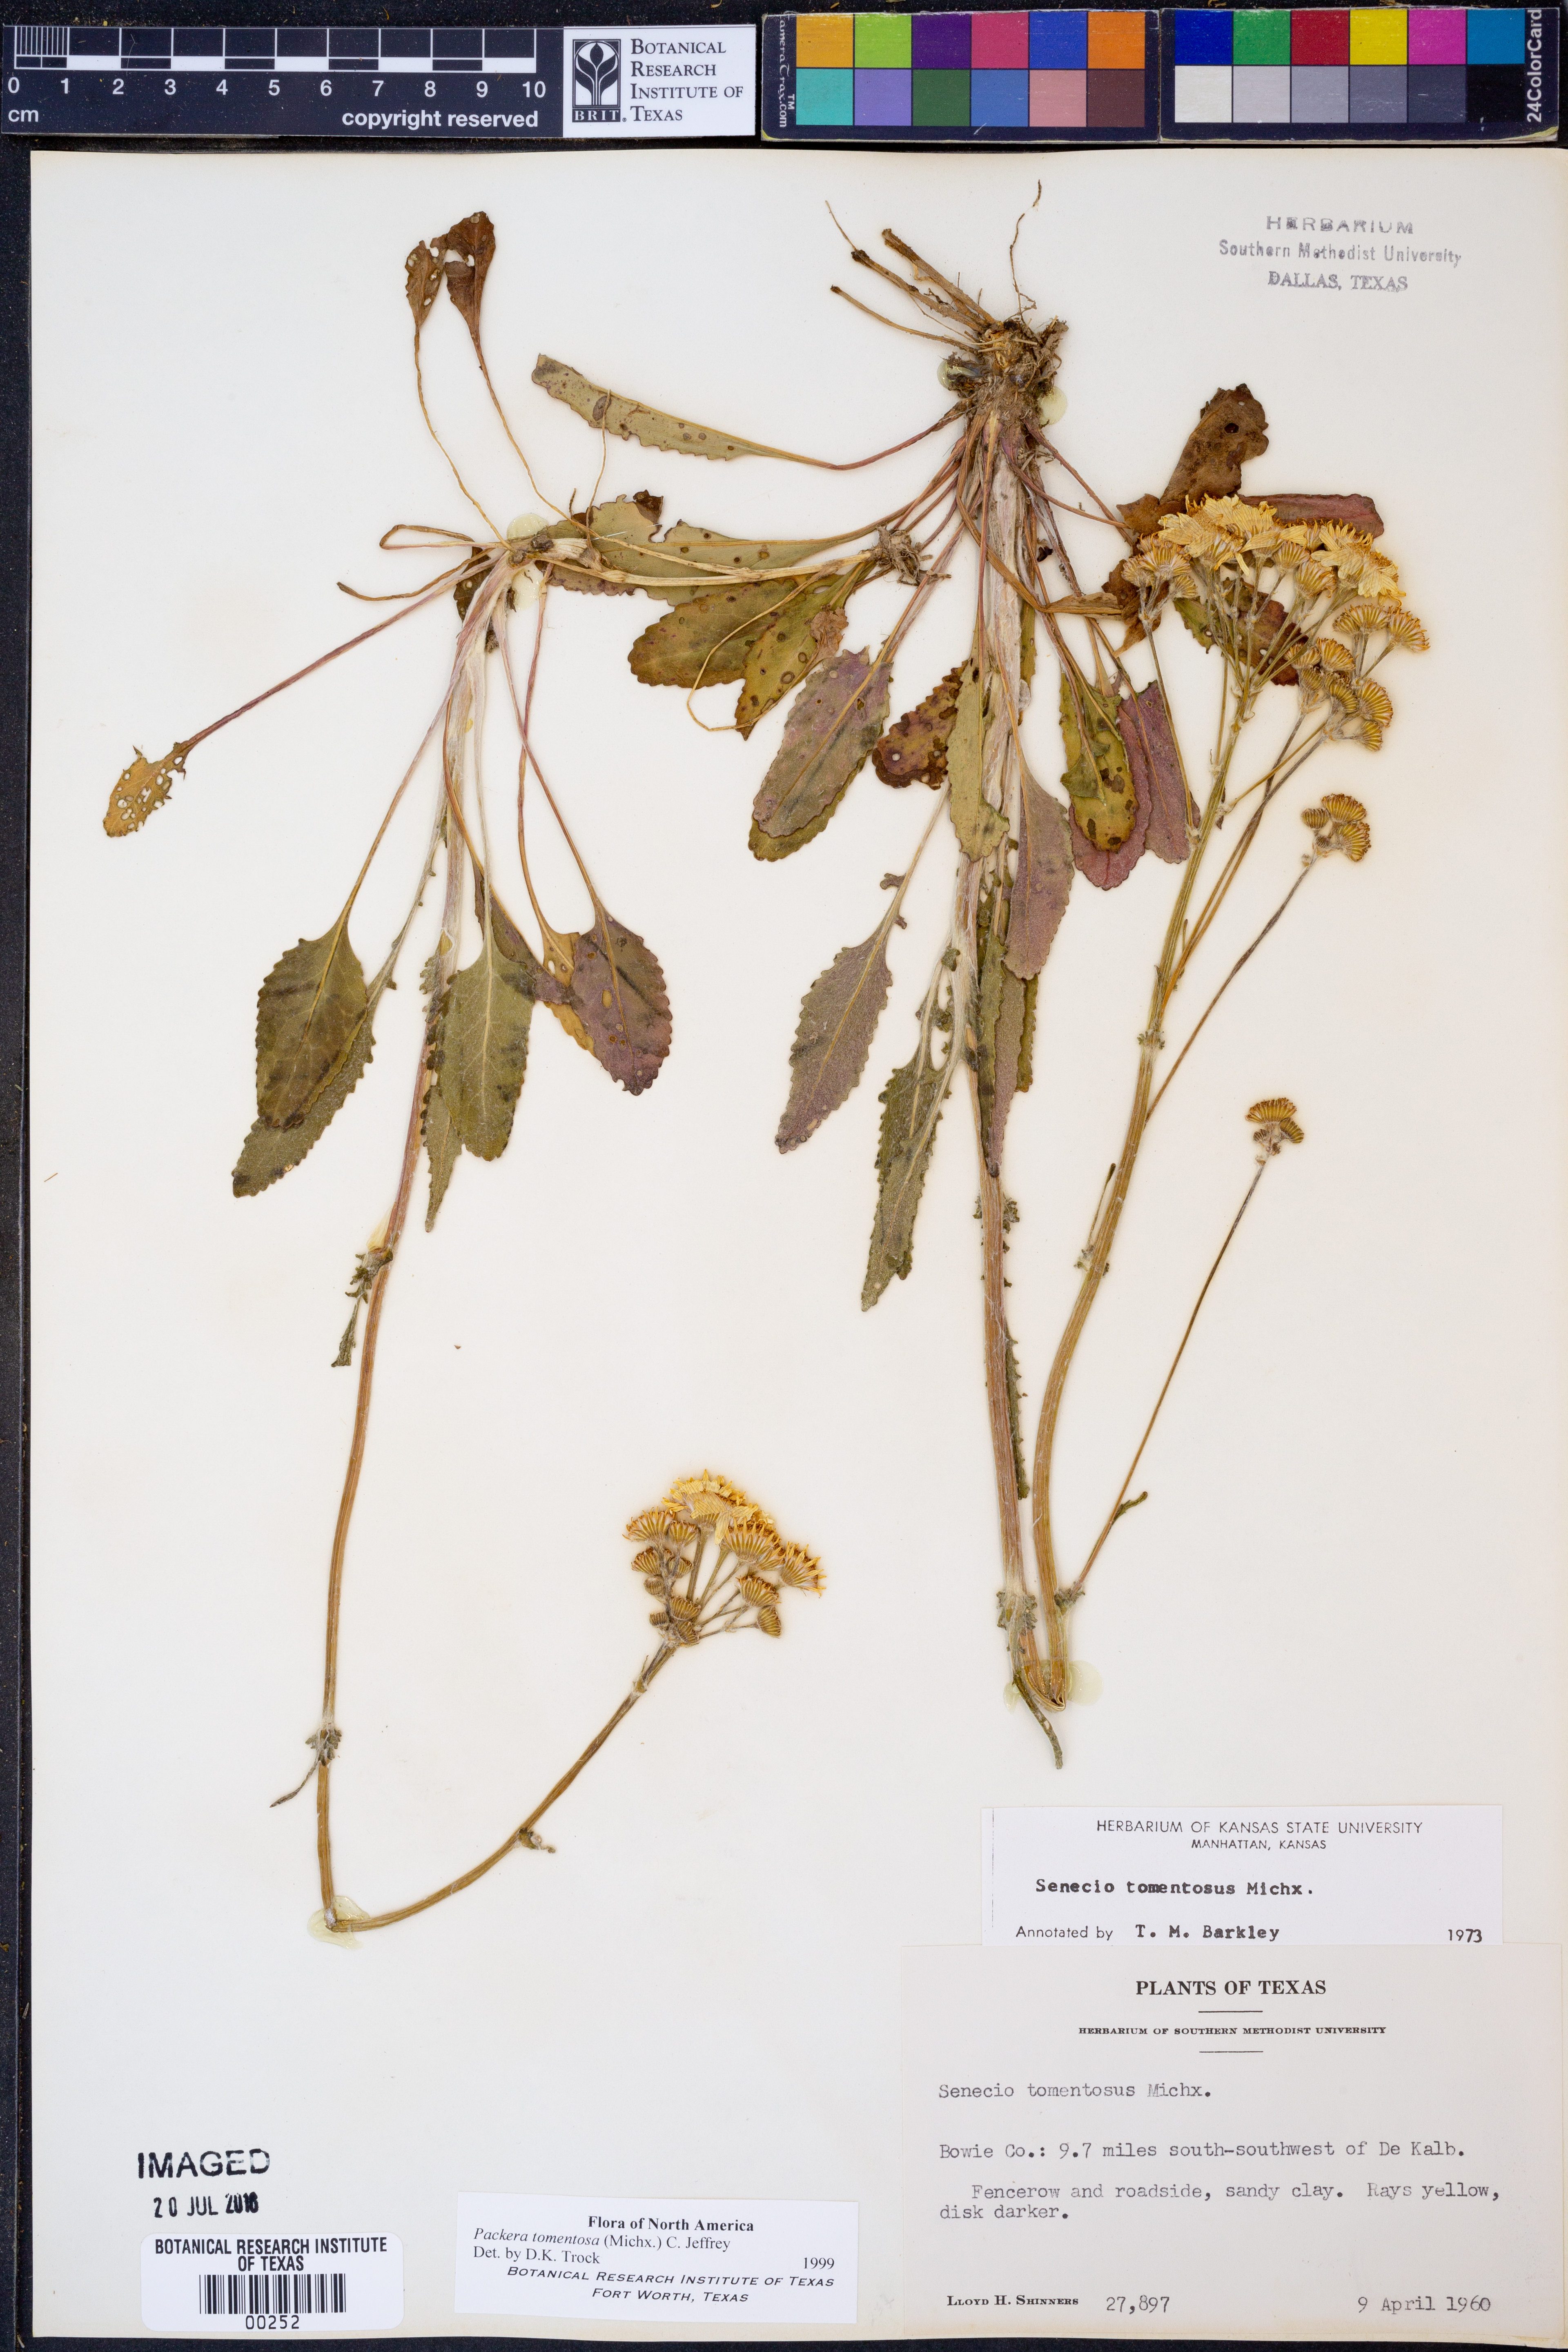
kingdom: Plantae
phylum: Tracheophyta
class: Magnoliopsida
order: Asterales
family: Asteraceae
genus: Packera
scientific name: Packera dubia
